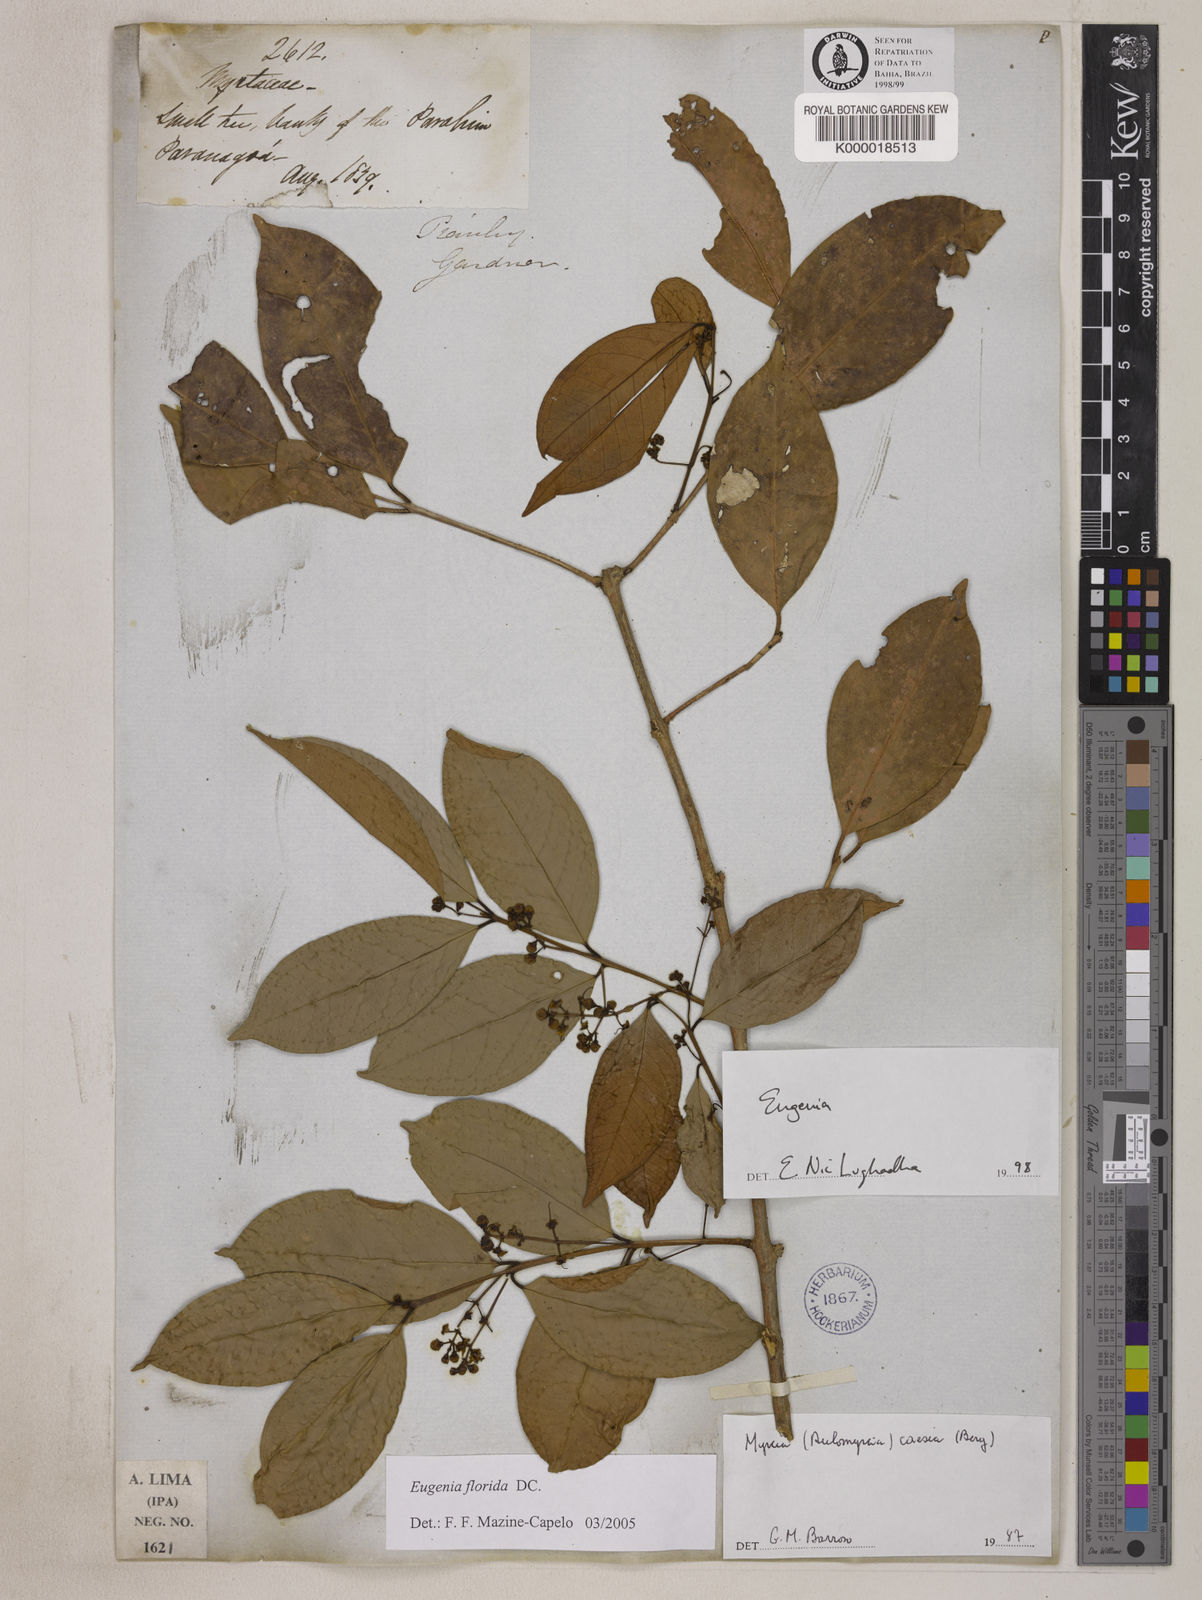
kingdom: Plantae
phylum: Tracheophyta
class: Magnoliopsida
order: Myrtales
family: Myrtaceae
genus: Eugenia
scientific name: Eugenia florida
